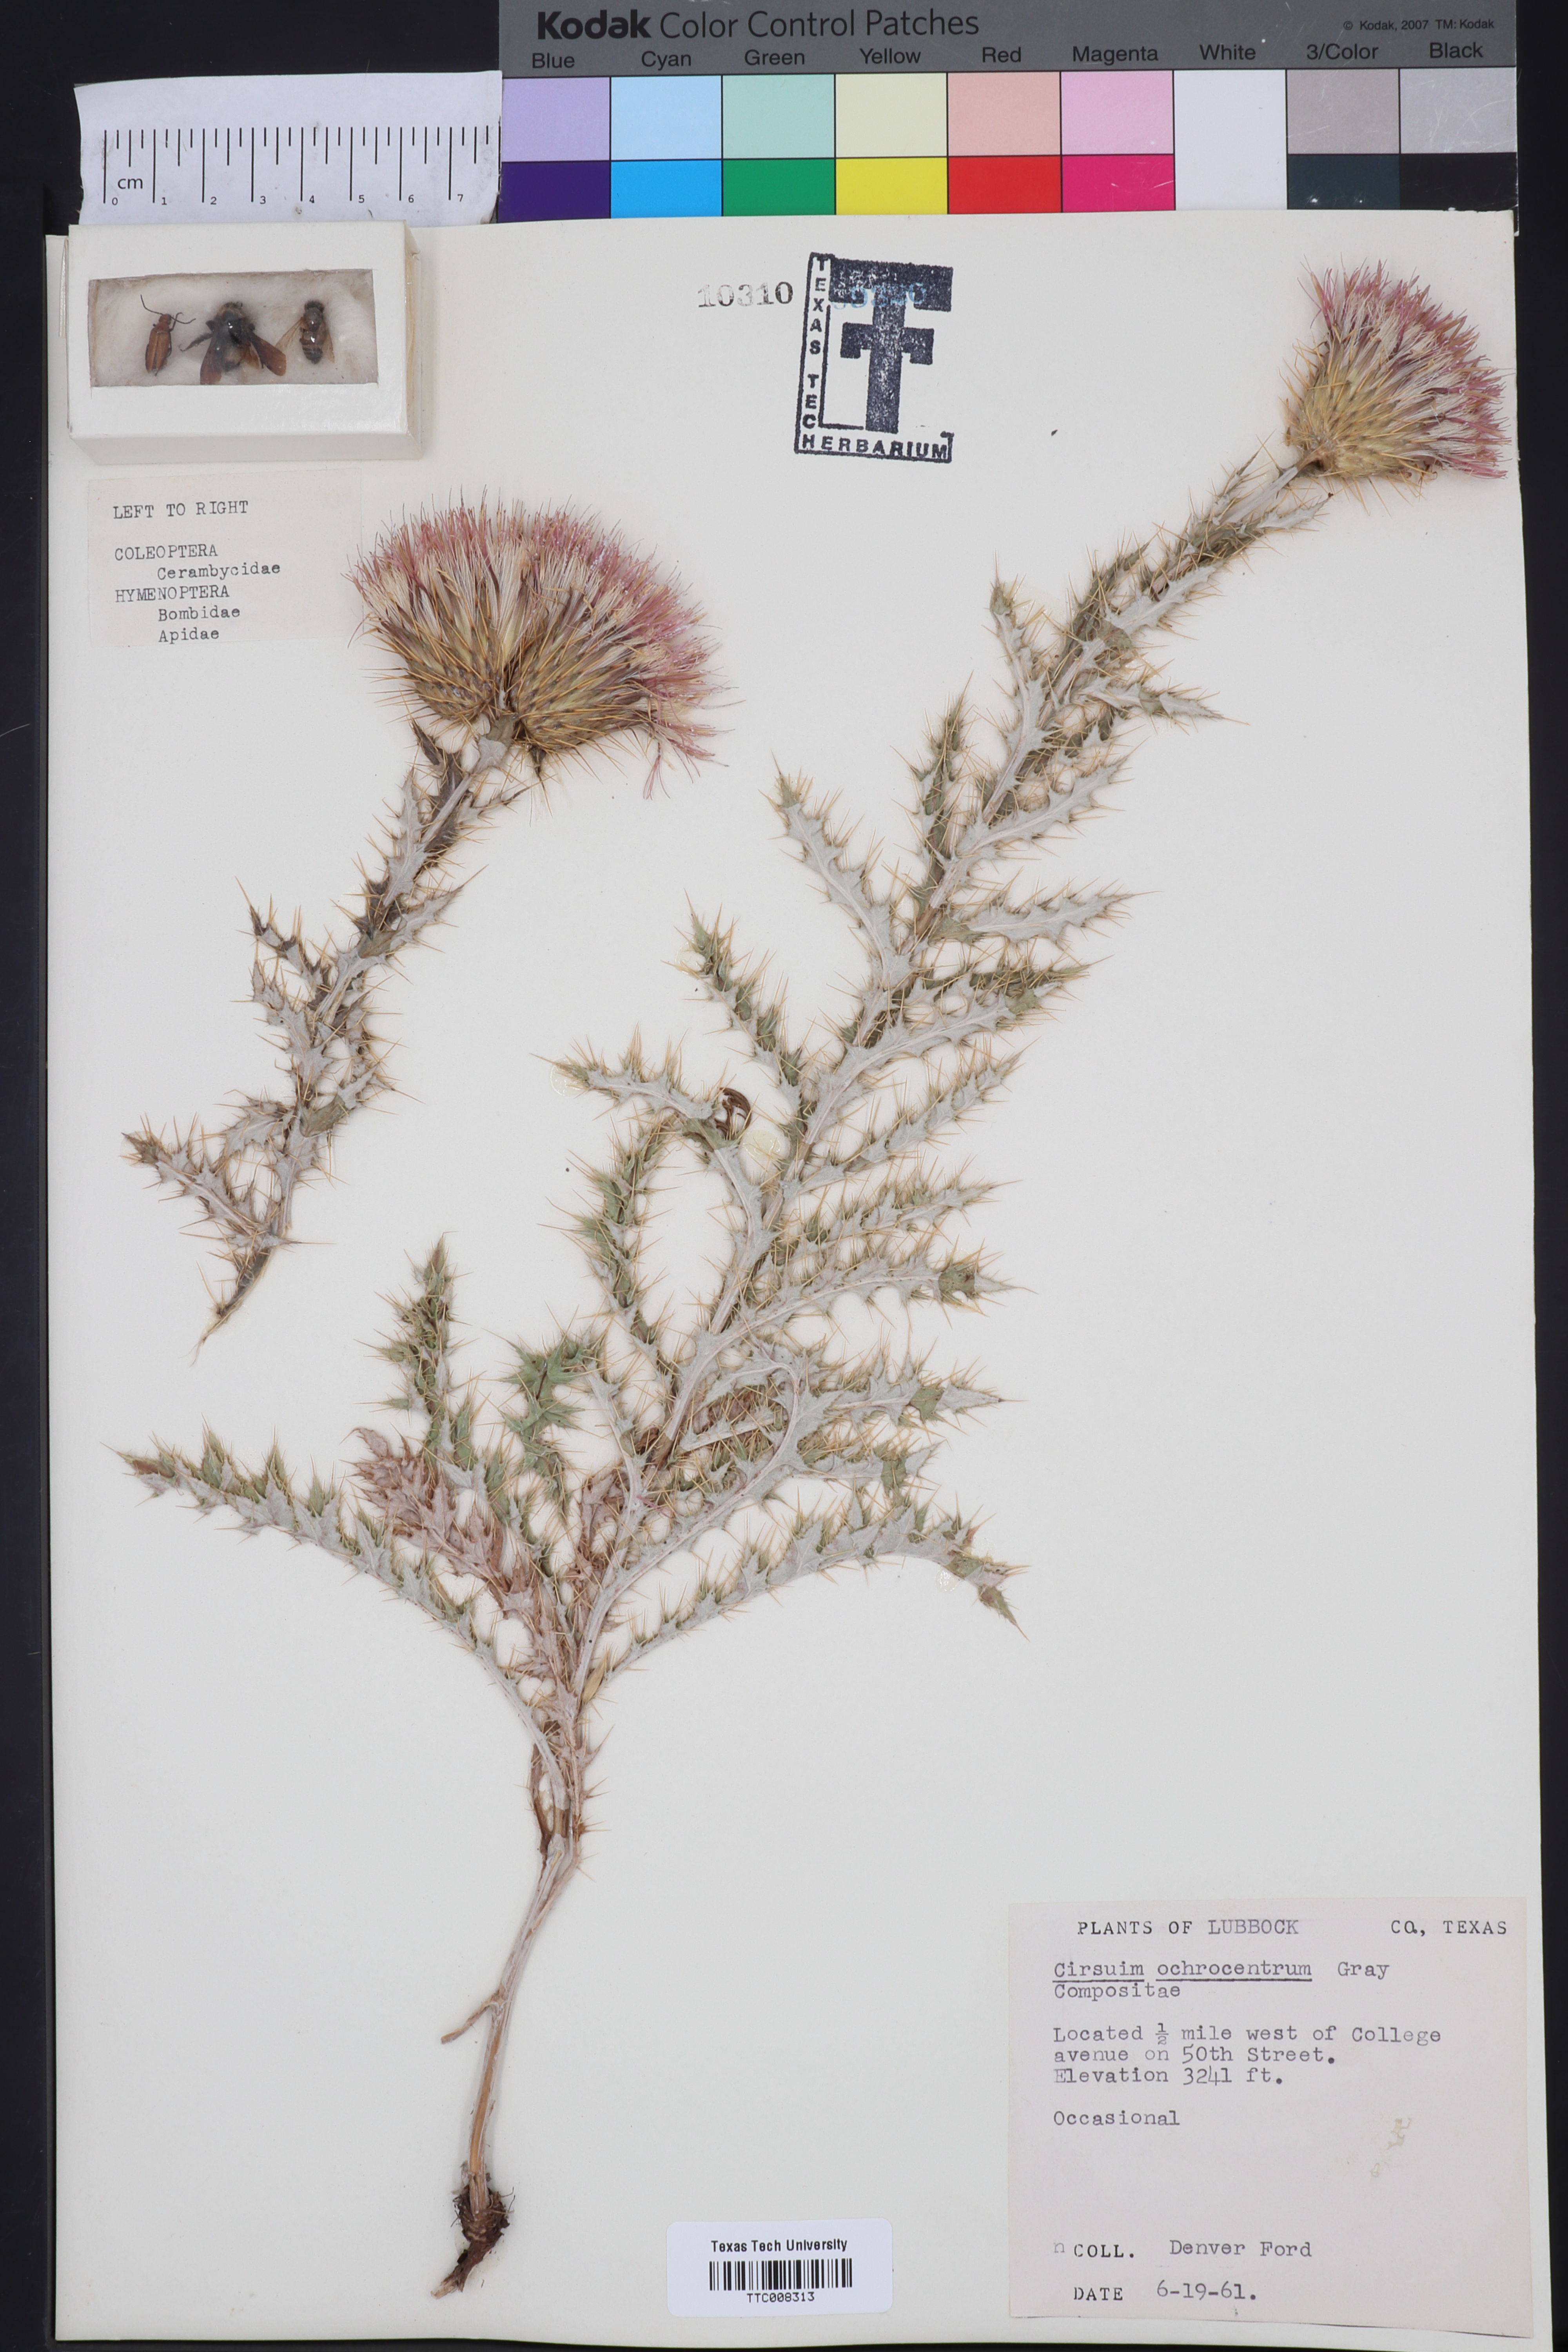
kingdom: Plantae
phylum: Tracheophyta
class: Magnoliopsida
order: Asterales
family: Asteraceae
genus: Cirsium
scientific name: Cirsium ochrocentrum
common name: Yellow-spine thistle
